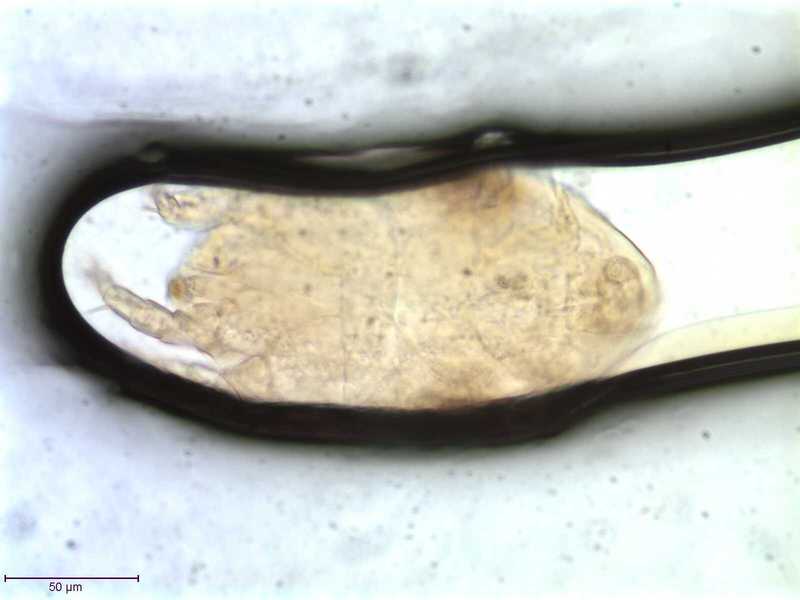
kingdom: Animalia
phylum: Arthropoda
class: Arachnida
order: Sarcoptiformes
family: Winterschmidtiidae
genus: Winterschmidtia
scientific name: Winterschmidtia circumspectans
